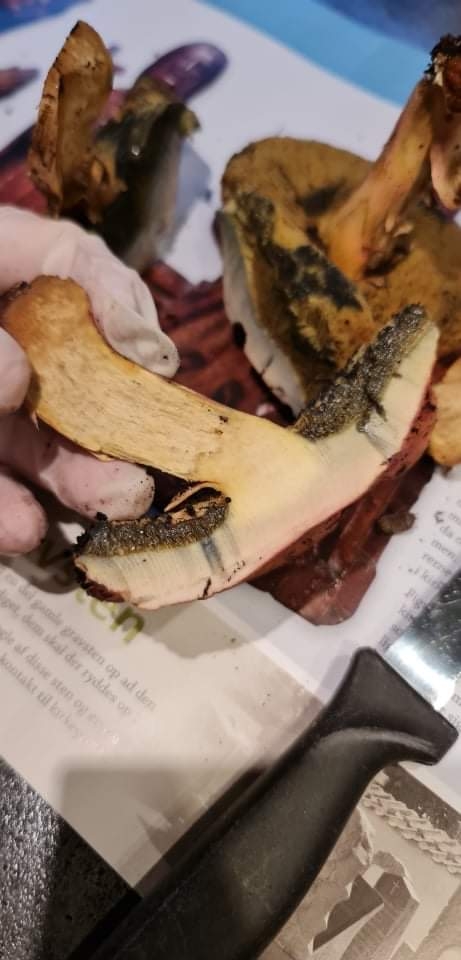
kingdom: Fungi
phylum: Basidiomycota
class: Agaricomycetes
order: Boletales
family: Boletaceae
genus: Hortiboletus
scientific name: Hortiboletus bubalinus
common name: aurora-rørhat
